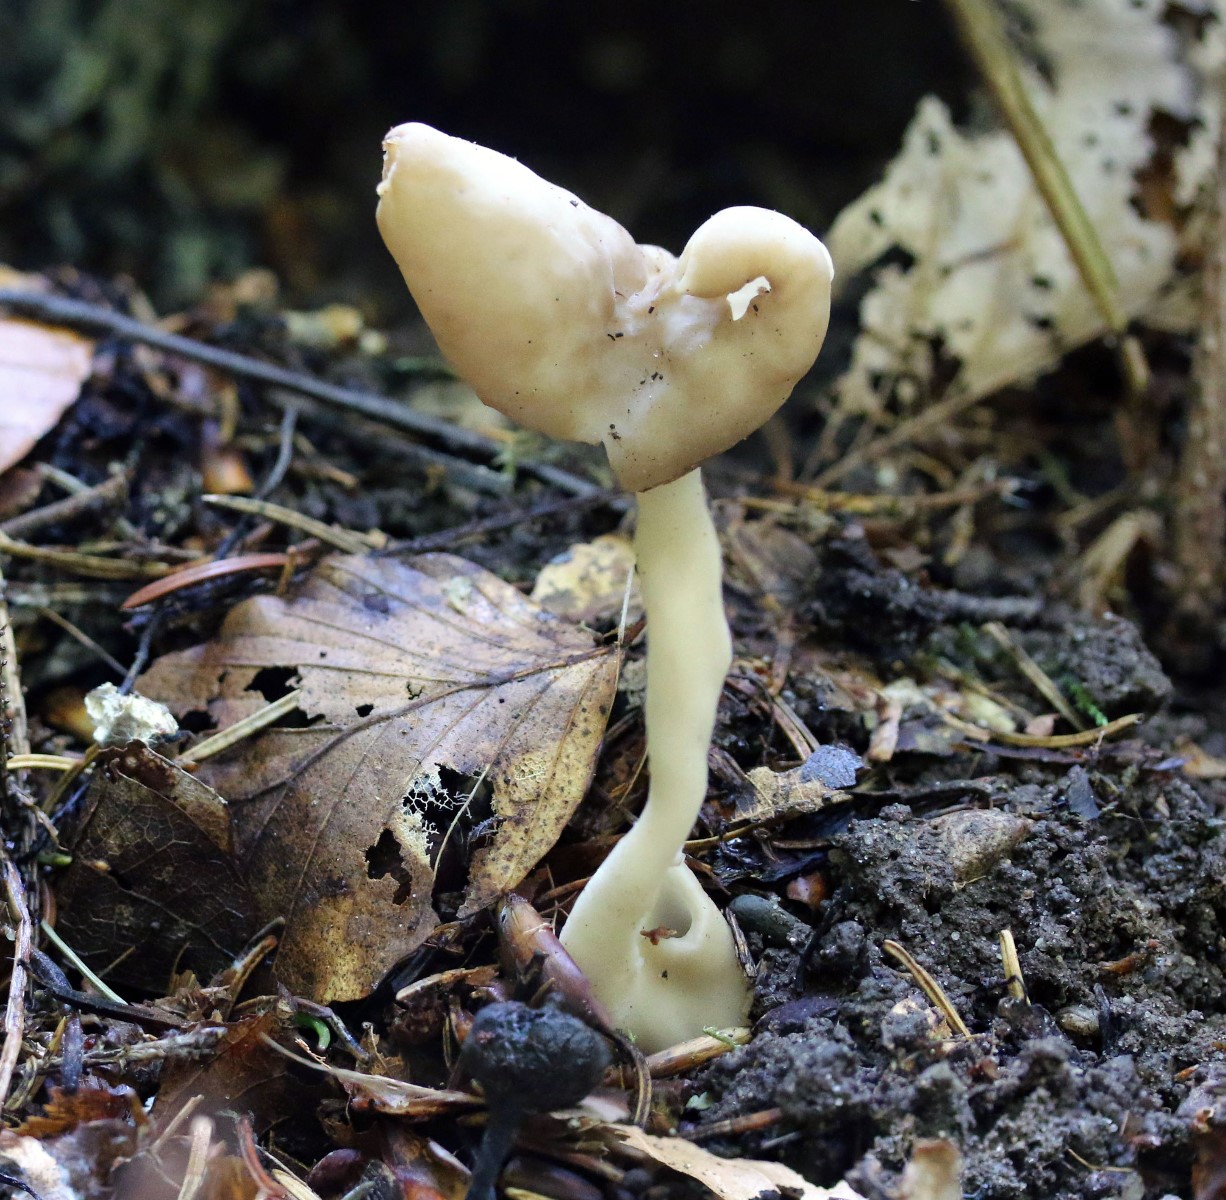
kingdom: Fungi
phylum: Ascomycota
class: Pezizomycetes
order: Pezizales
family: Helvellaceae
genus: Helvella
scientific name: Helvella elastica
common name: elastik-foldhat
